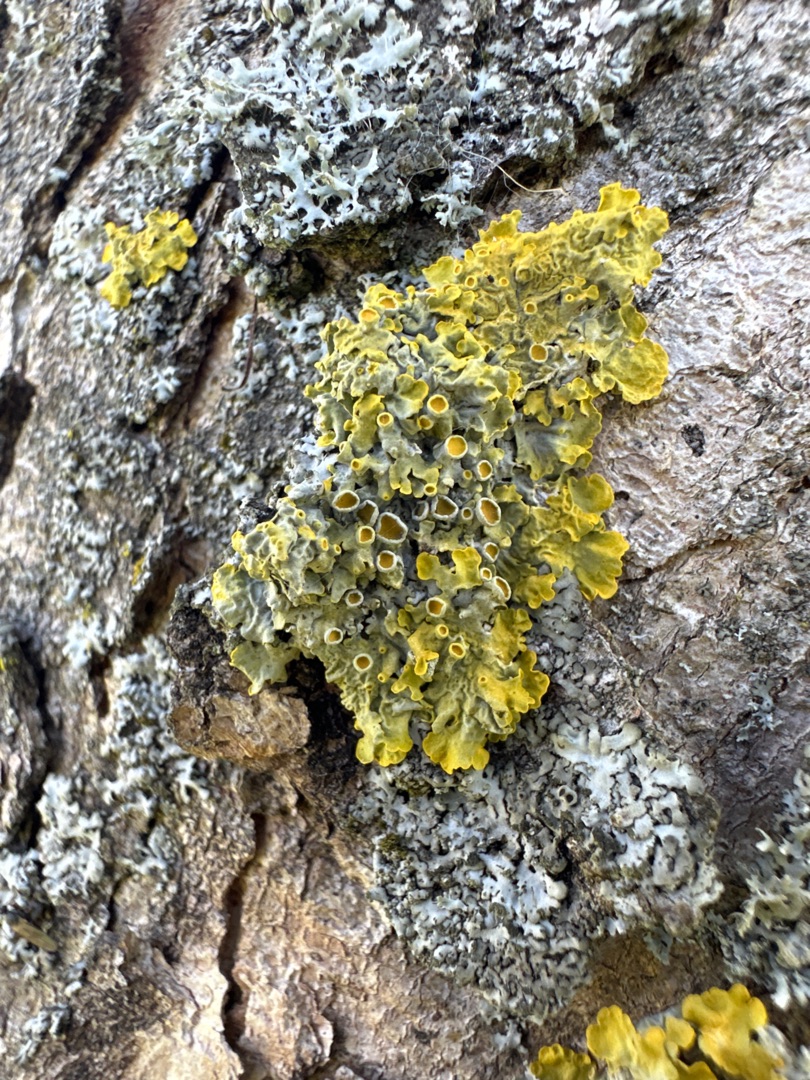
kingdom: Fungi
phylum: Ascomycota
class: Lecanoromycetes
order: Teloschistales
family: Teloschistaceae
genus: Xanthoria
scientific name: Xanthoria parietina
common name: Almindelig væggelav
